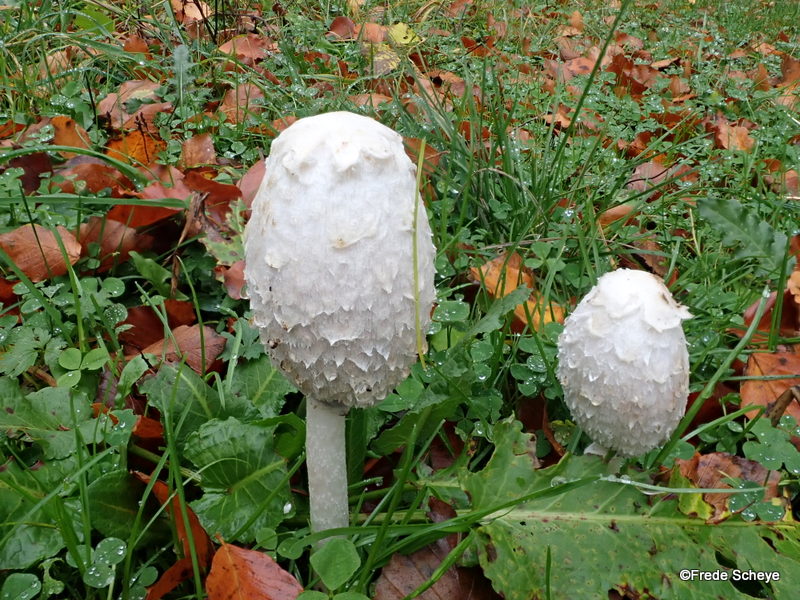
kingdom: Fungi
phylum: Basidiomycota
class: Agaricomycetes
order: Agaricales
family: Agaricaceae
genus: Coprinus
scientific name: Coprinus comatus
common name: stor parykhat
